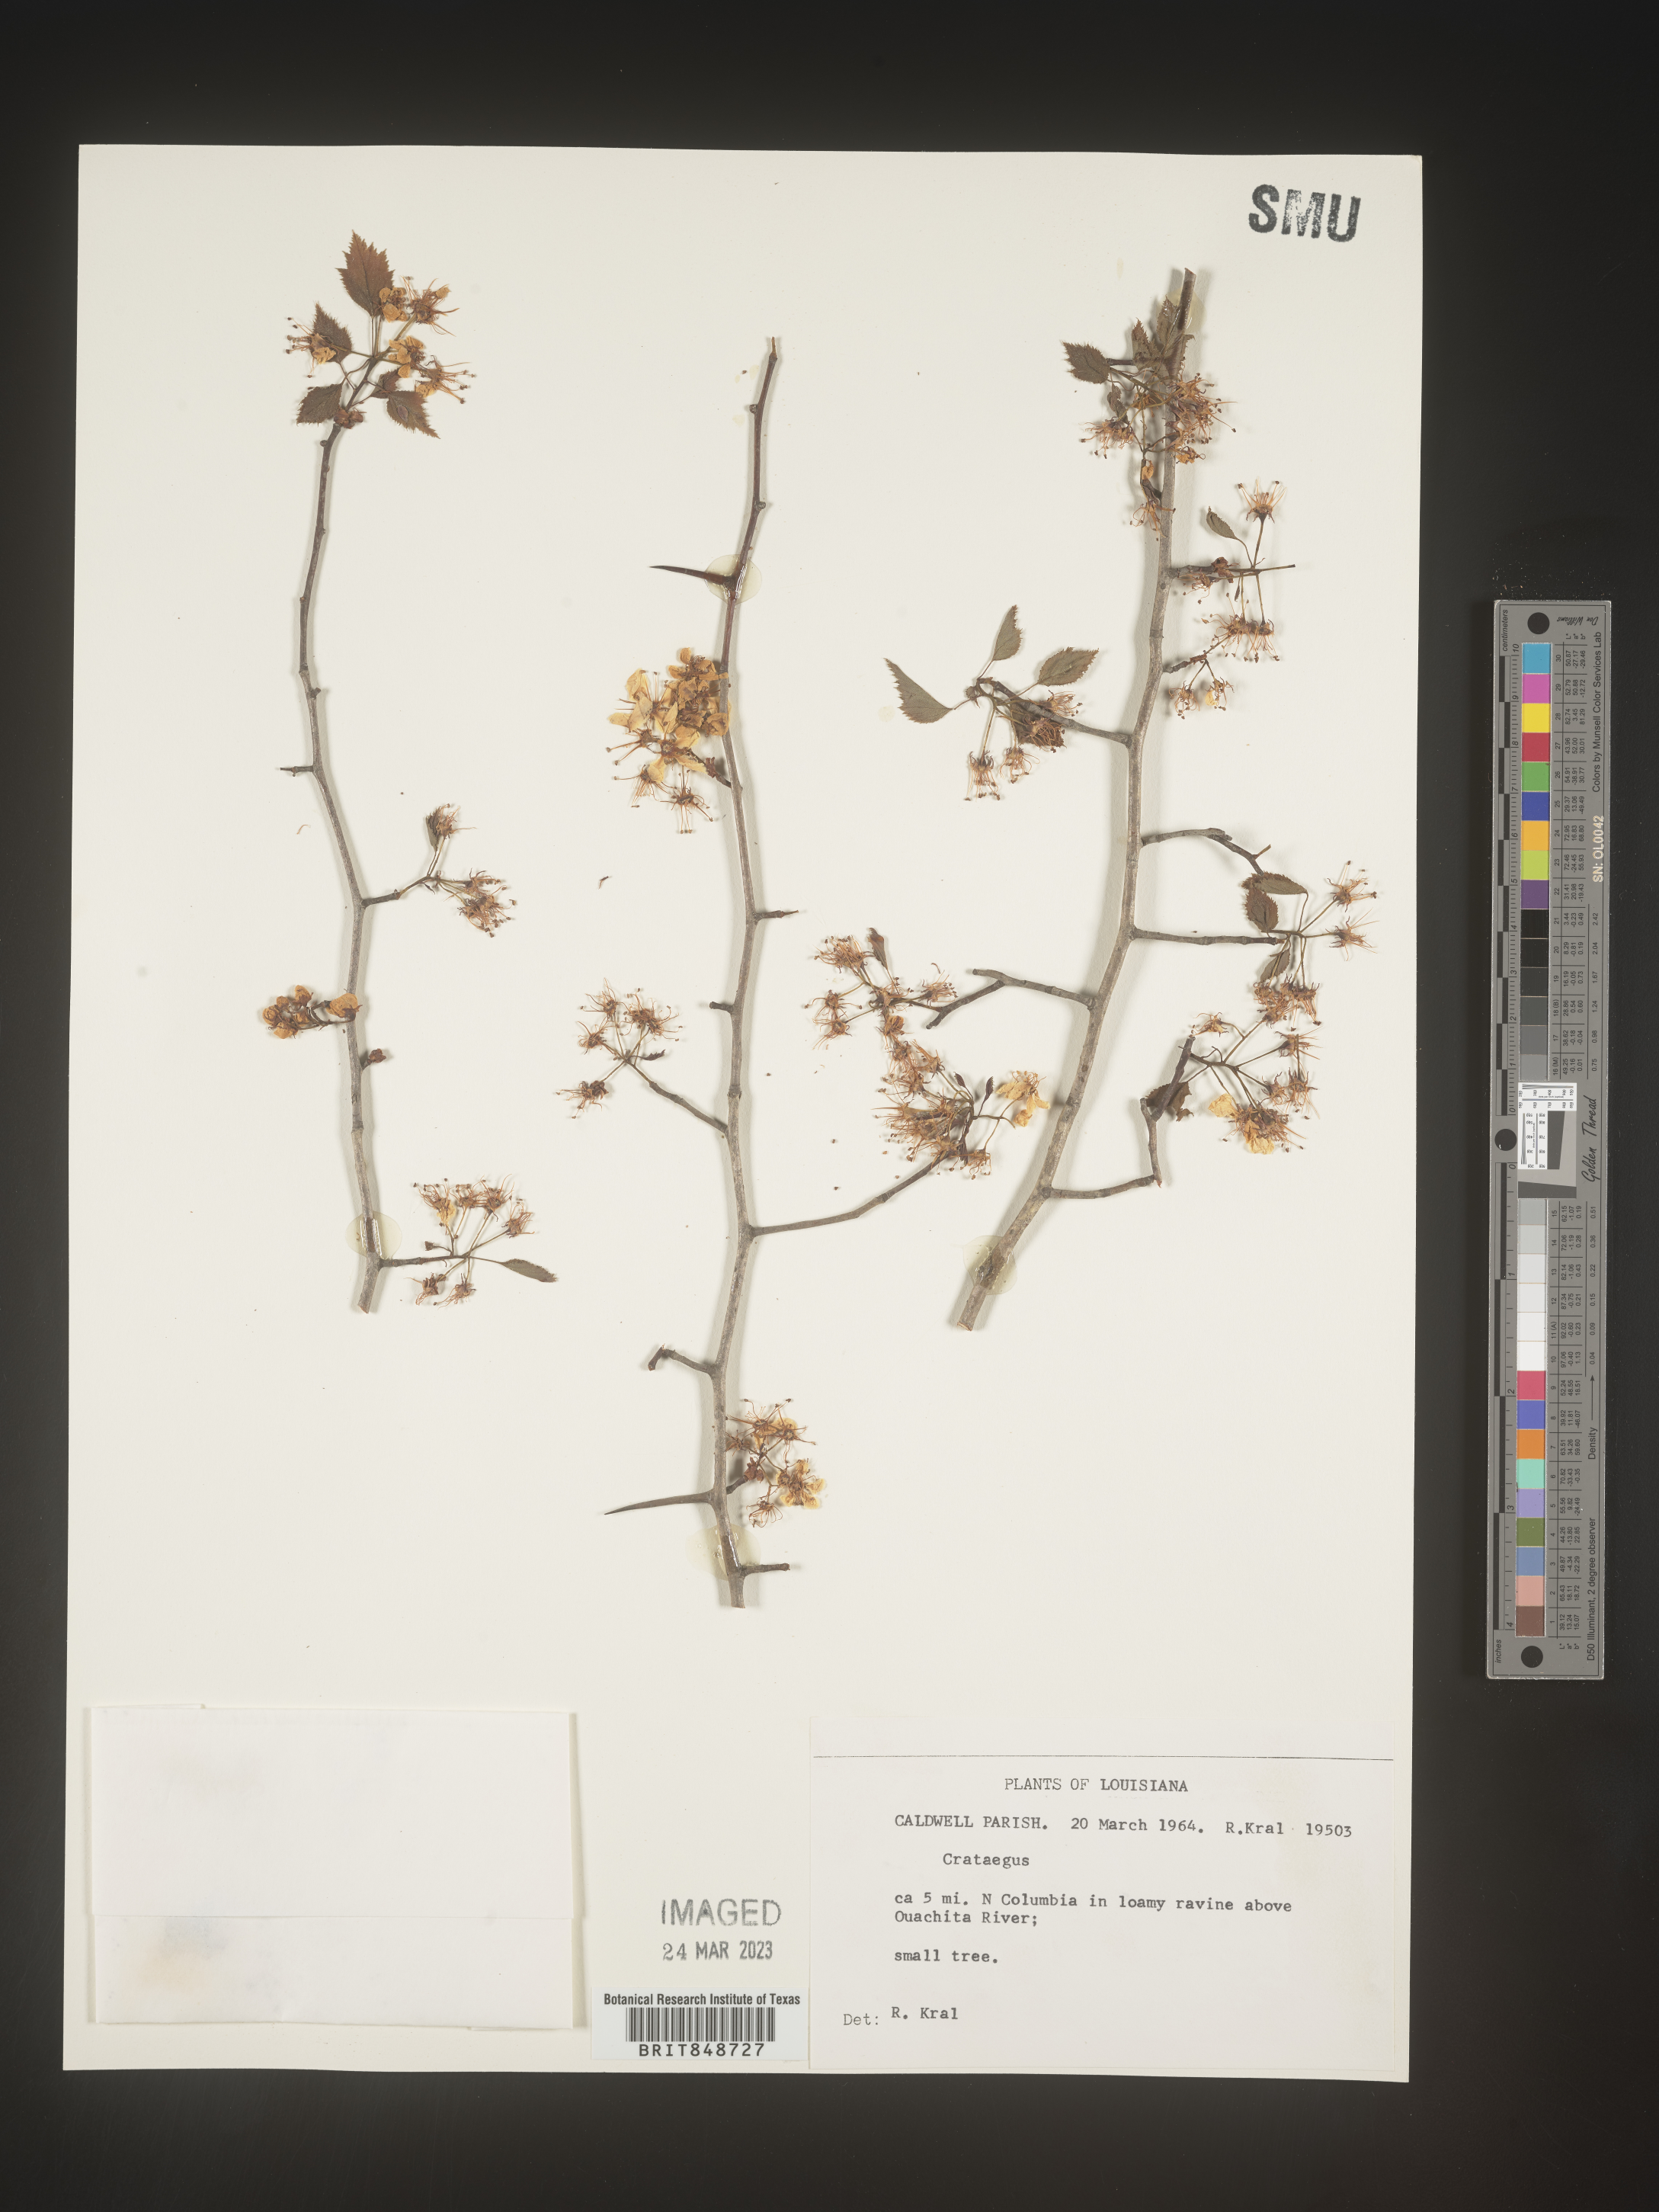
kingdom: Plantae
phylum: Tracheophyta
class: Magnoliopsida
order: Rosales
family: Rosaceae
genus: Crataegus
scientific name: Crataegus
